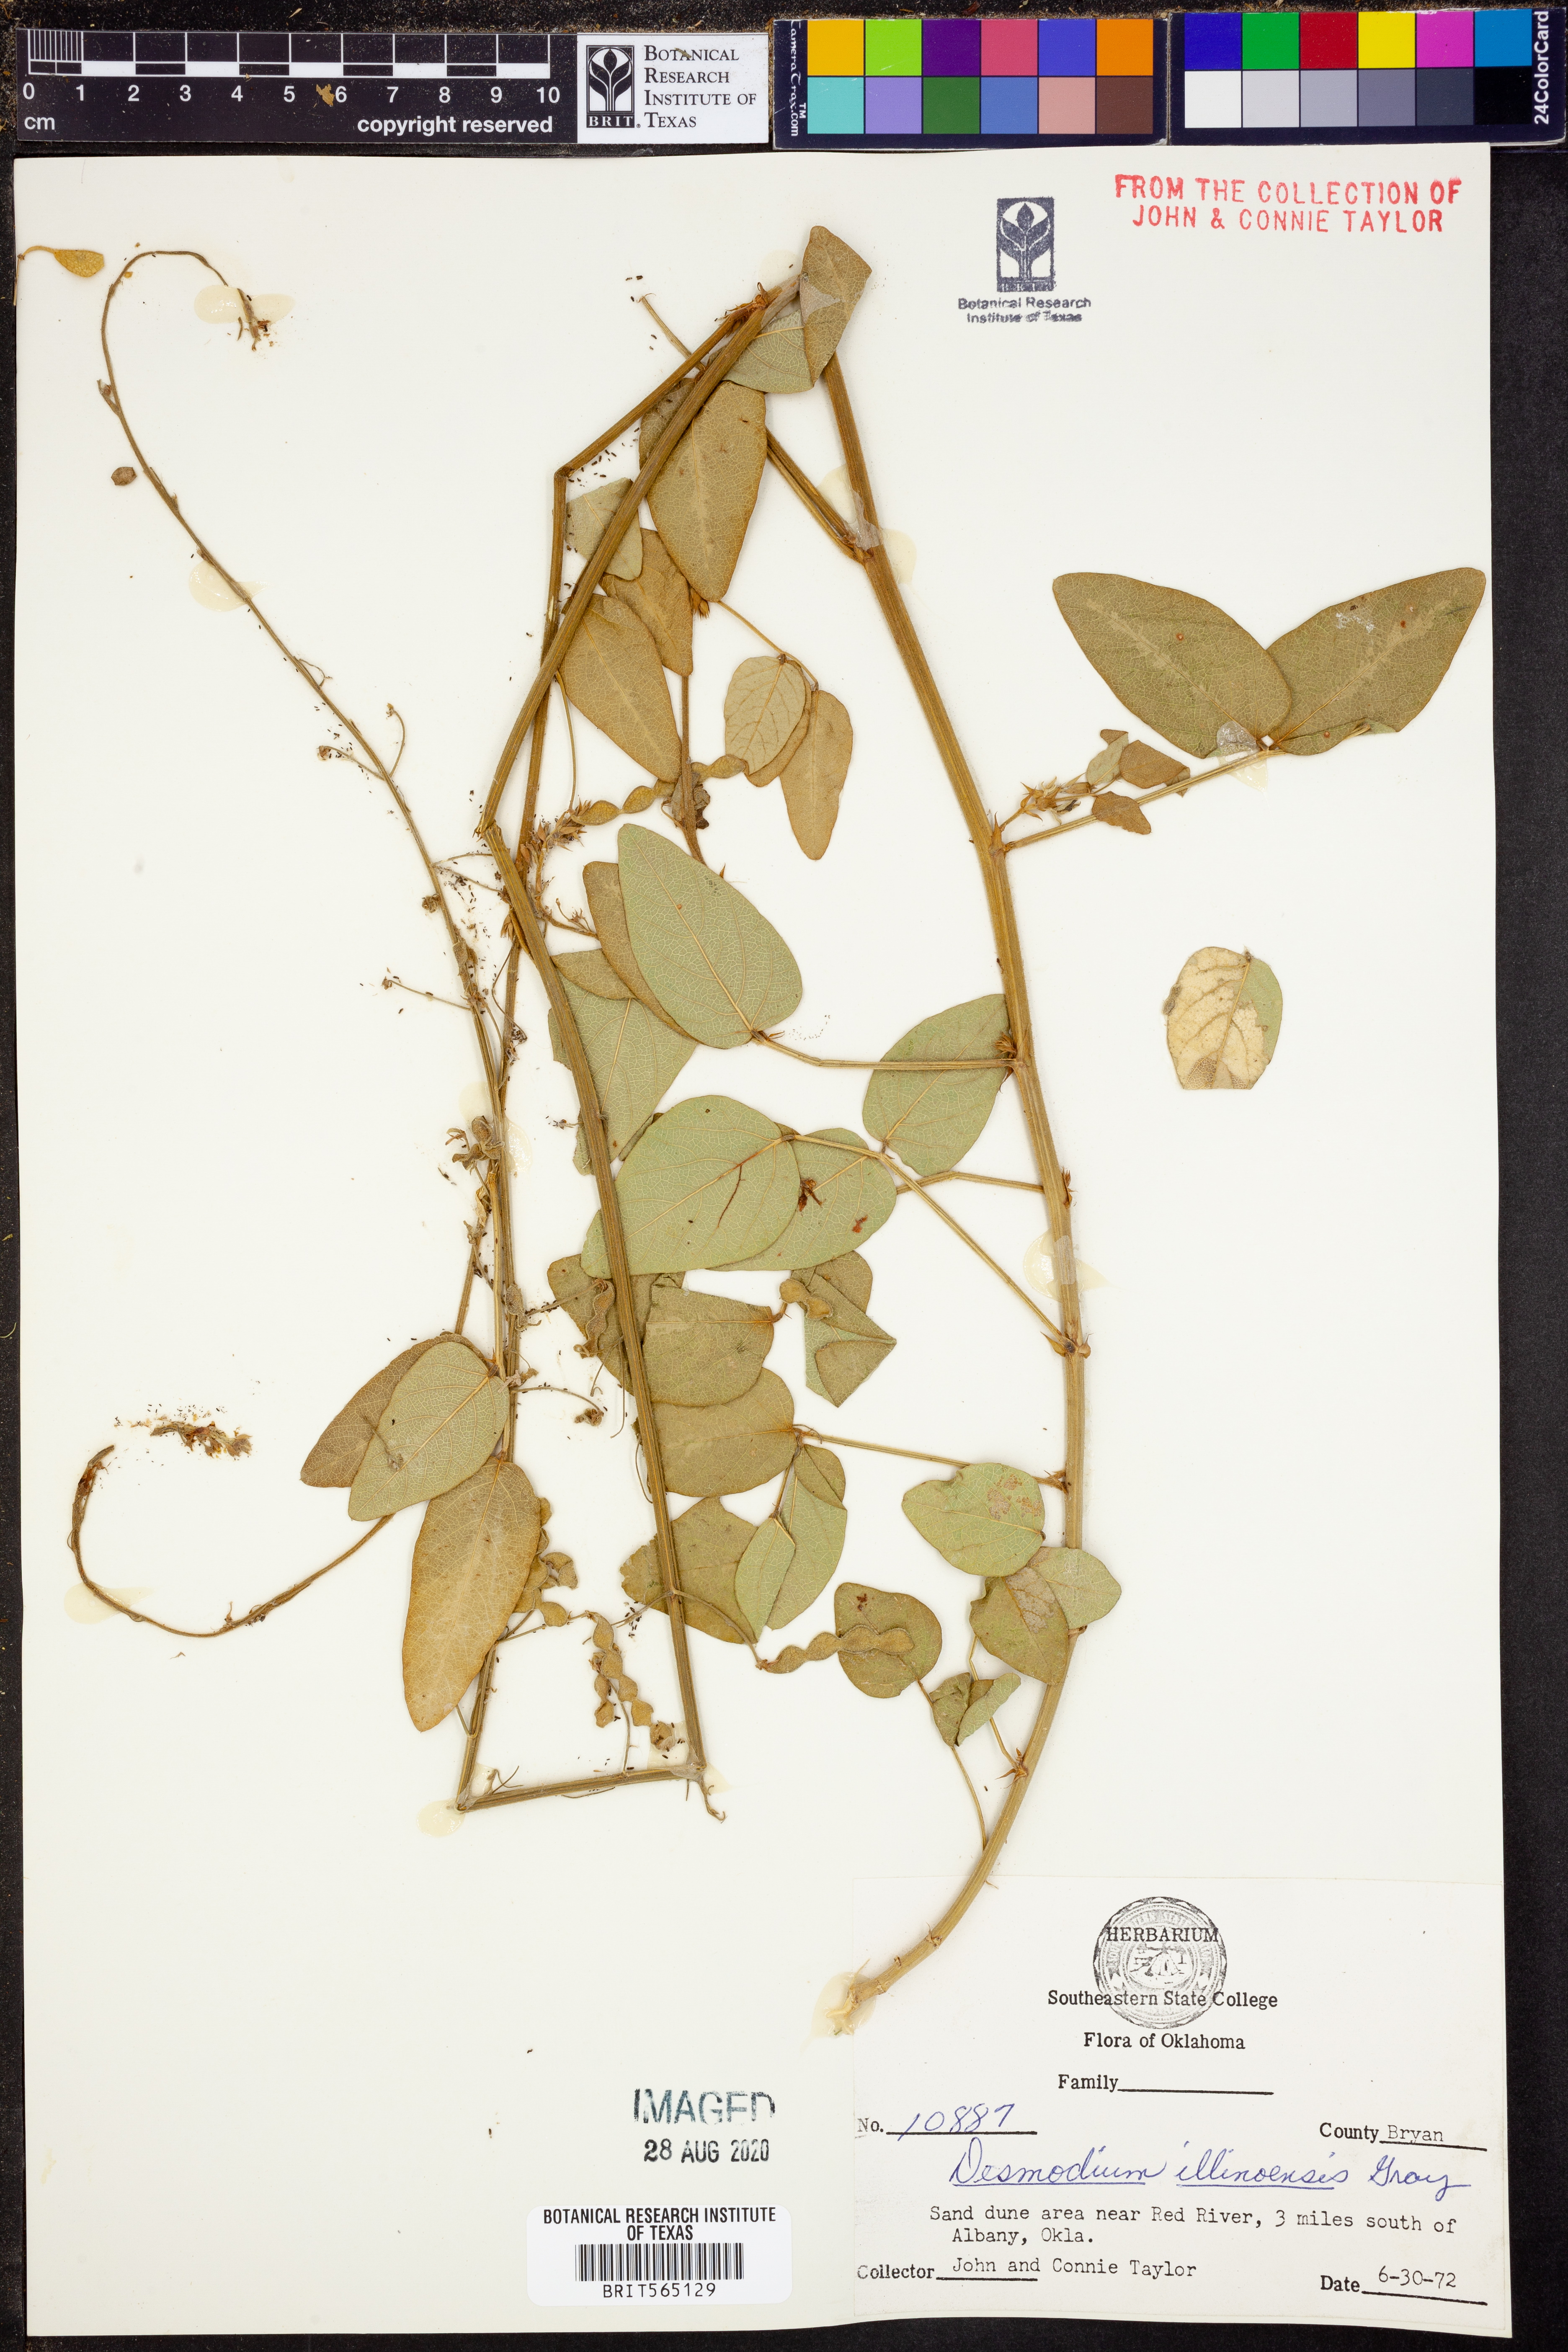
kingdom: Plantae
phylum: Tracheophyta
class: Magnoliopsida
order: Fabales
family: Fabaceae
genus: Desmodium
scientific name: Desmodium illinoense
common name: Illinois tick-clover
